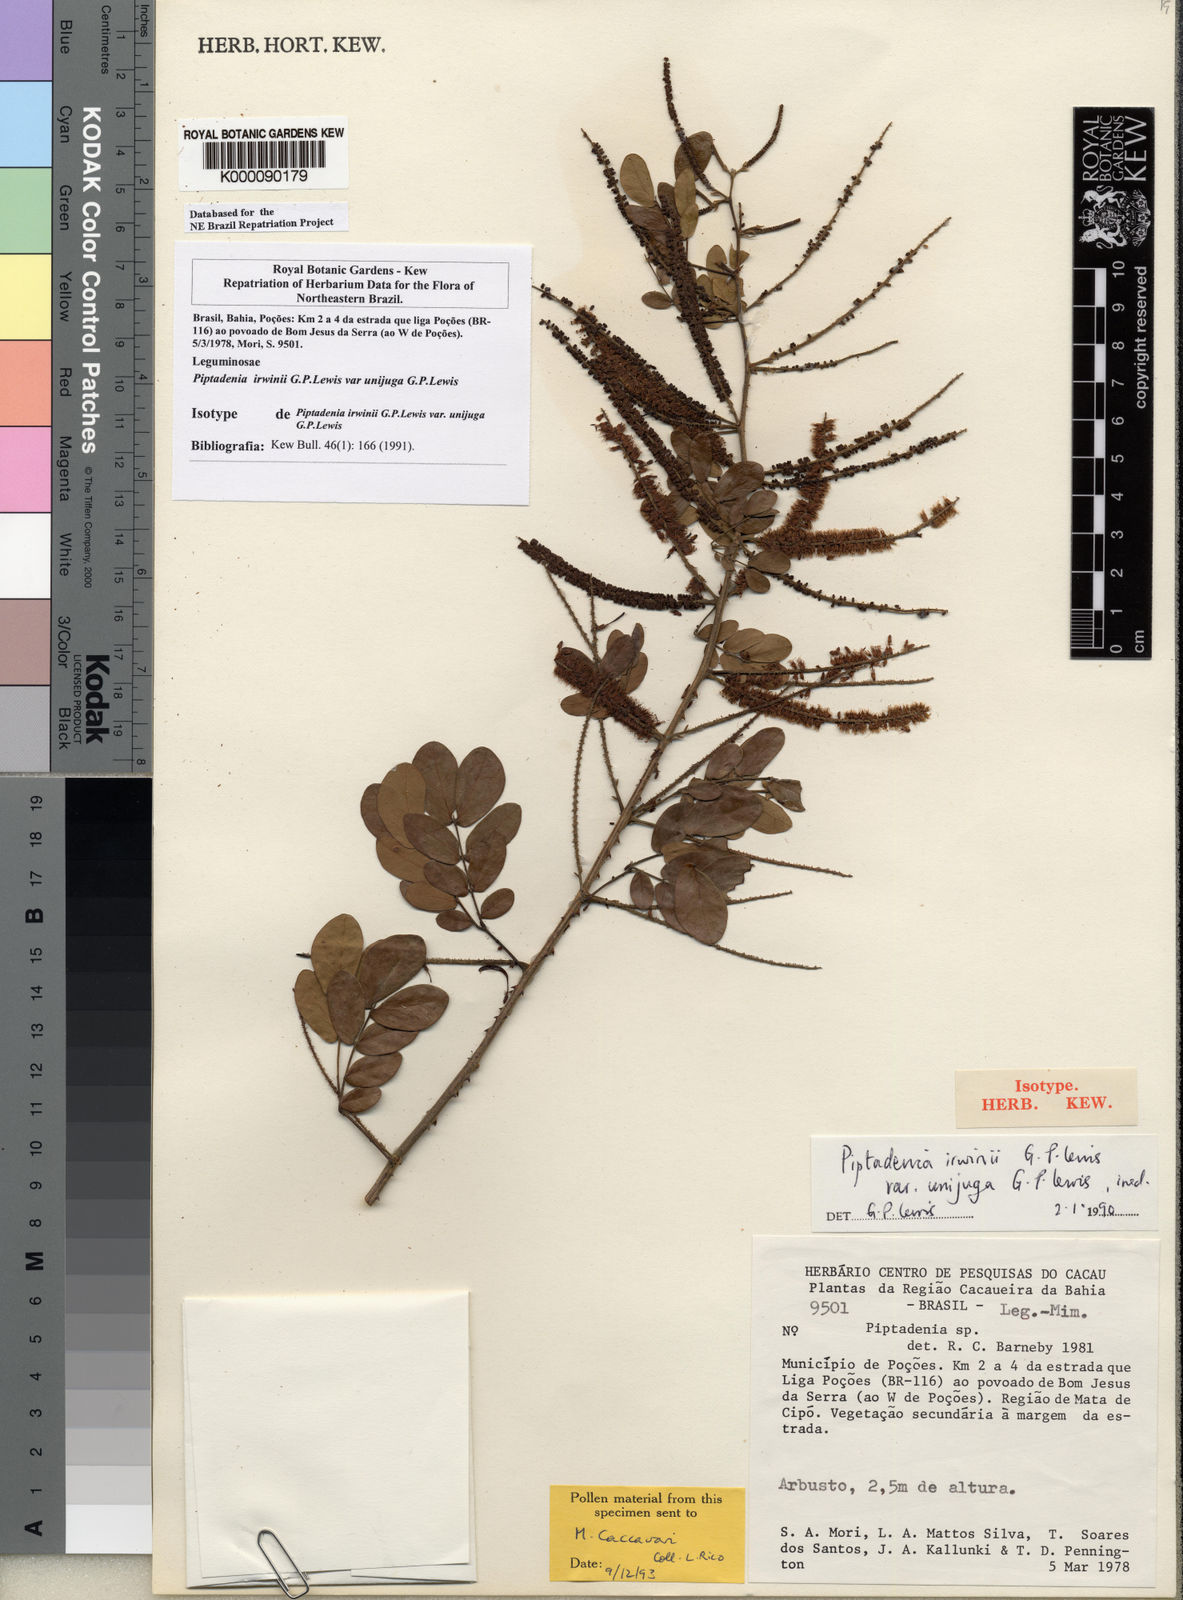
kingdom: Plantae
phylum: Tracheophyta
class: Magnoliopsida
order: Fabales
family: Fabaceae
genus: Piptadenia
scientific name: Piptadenia irwinii
